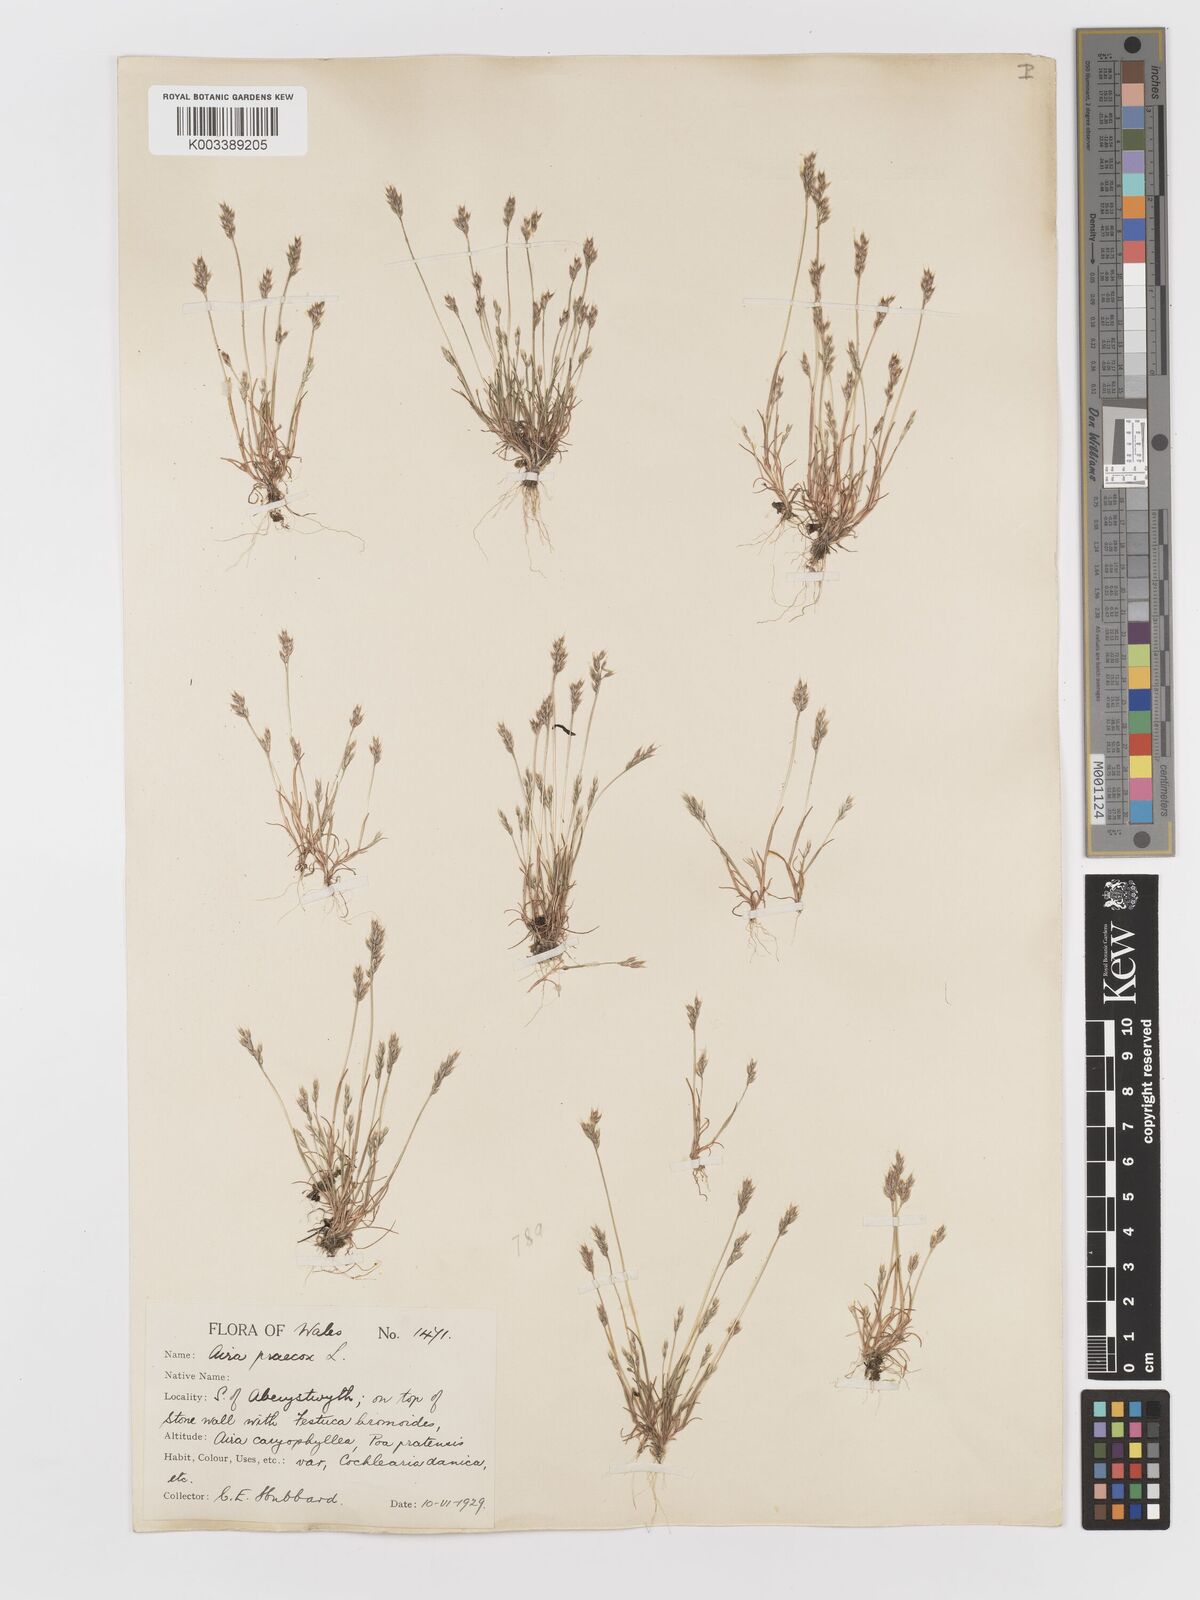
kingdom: Plantae
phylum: Tracheophyta
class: Liliopsida
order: Poales
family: Poaceae
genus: Aira
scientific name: Aira praecox
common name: Early hair-grass
